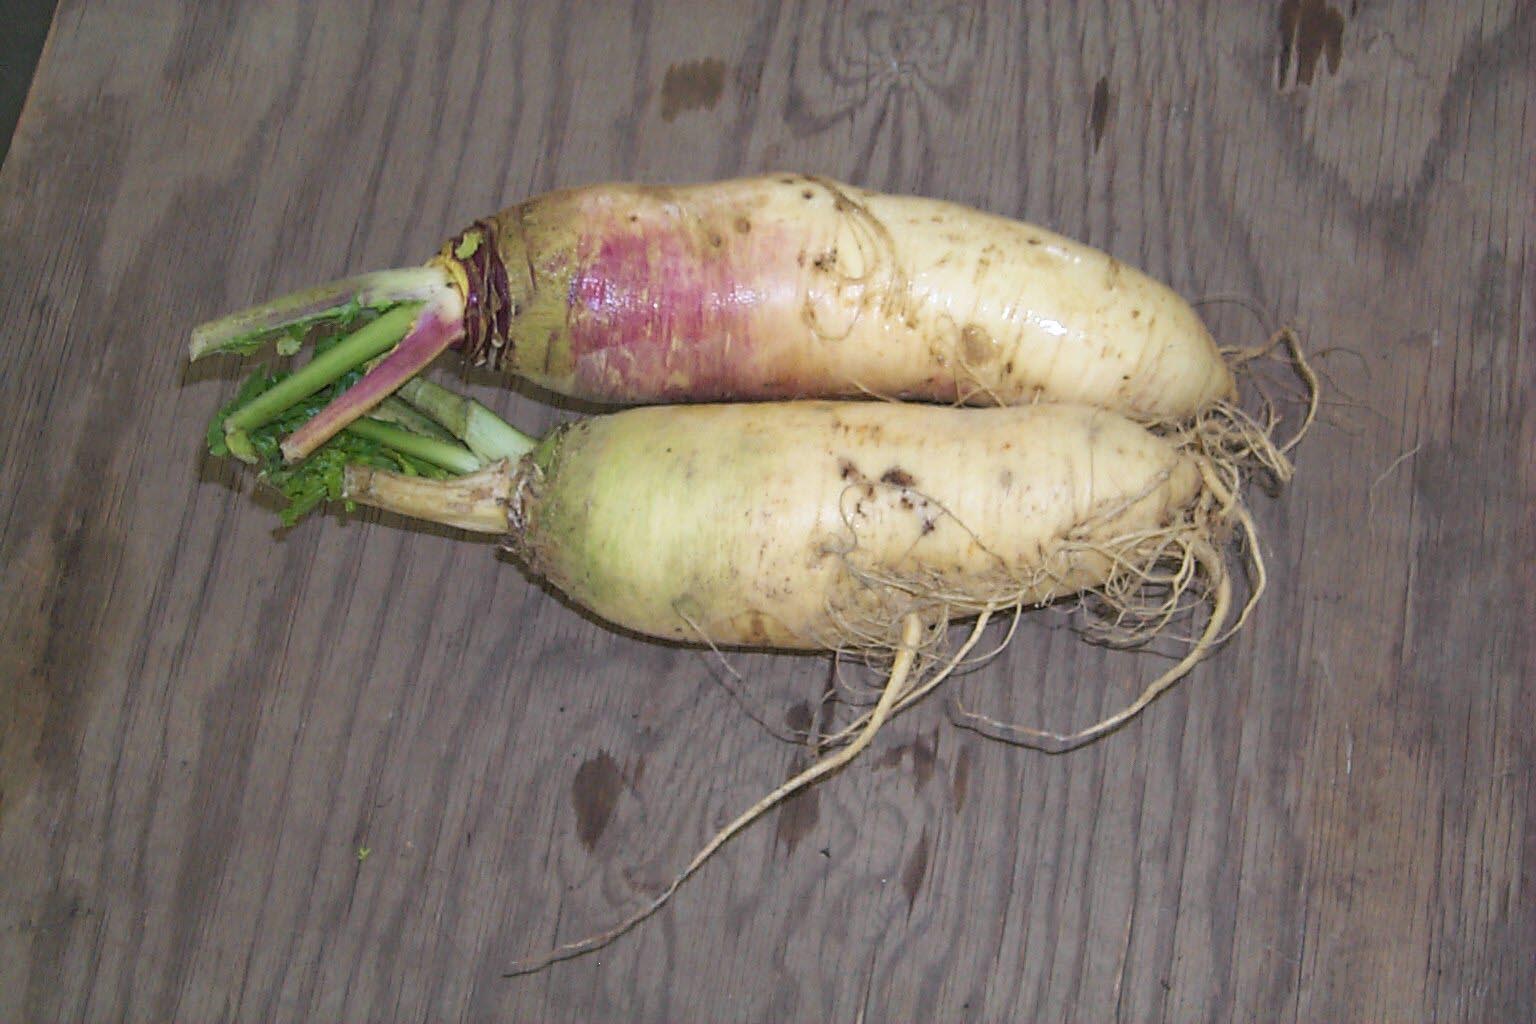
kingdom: Plantae
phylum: Tracheophyta
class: Magnoliopsida
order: Brassicales
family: Brassicaceae
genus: Brassica
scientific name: Brassica rapa
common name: Field mustard
